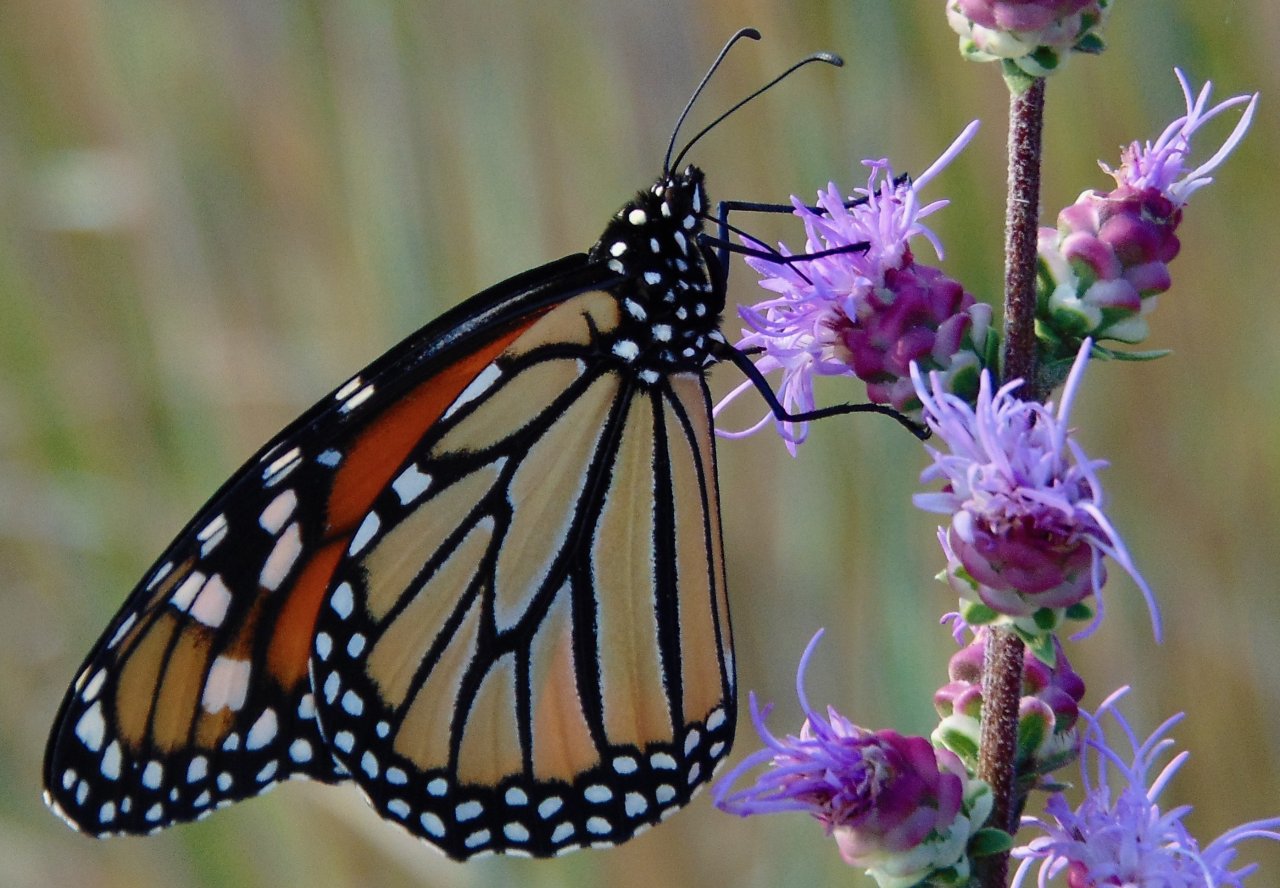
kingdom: Animalia
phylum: Arthropoda
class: Insecta
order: Lepidoptera
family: Nymphalidae
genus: Danaus
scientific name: Danaus plexippus
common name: Monarch
